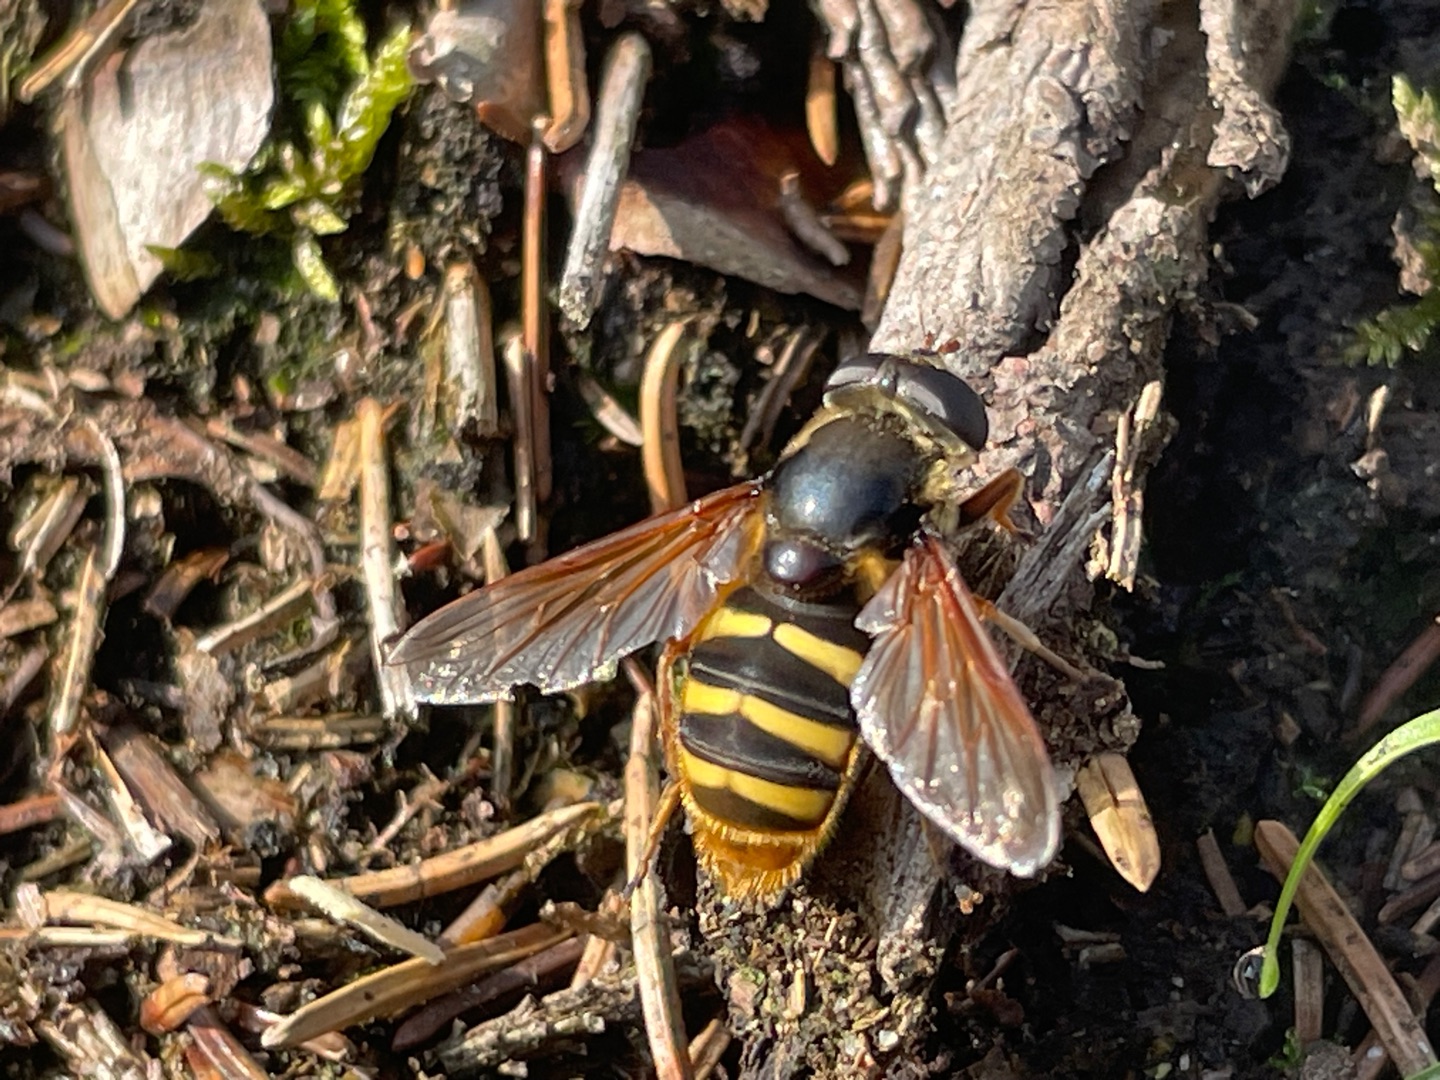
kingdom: Animalia
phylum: Arthropoda
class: Insecta
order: Diptera
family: Syrphidae
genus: Sericomyia
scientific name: Sericomyia silentis
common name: Tørve-silkesvirreflue
